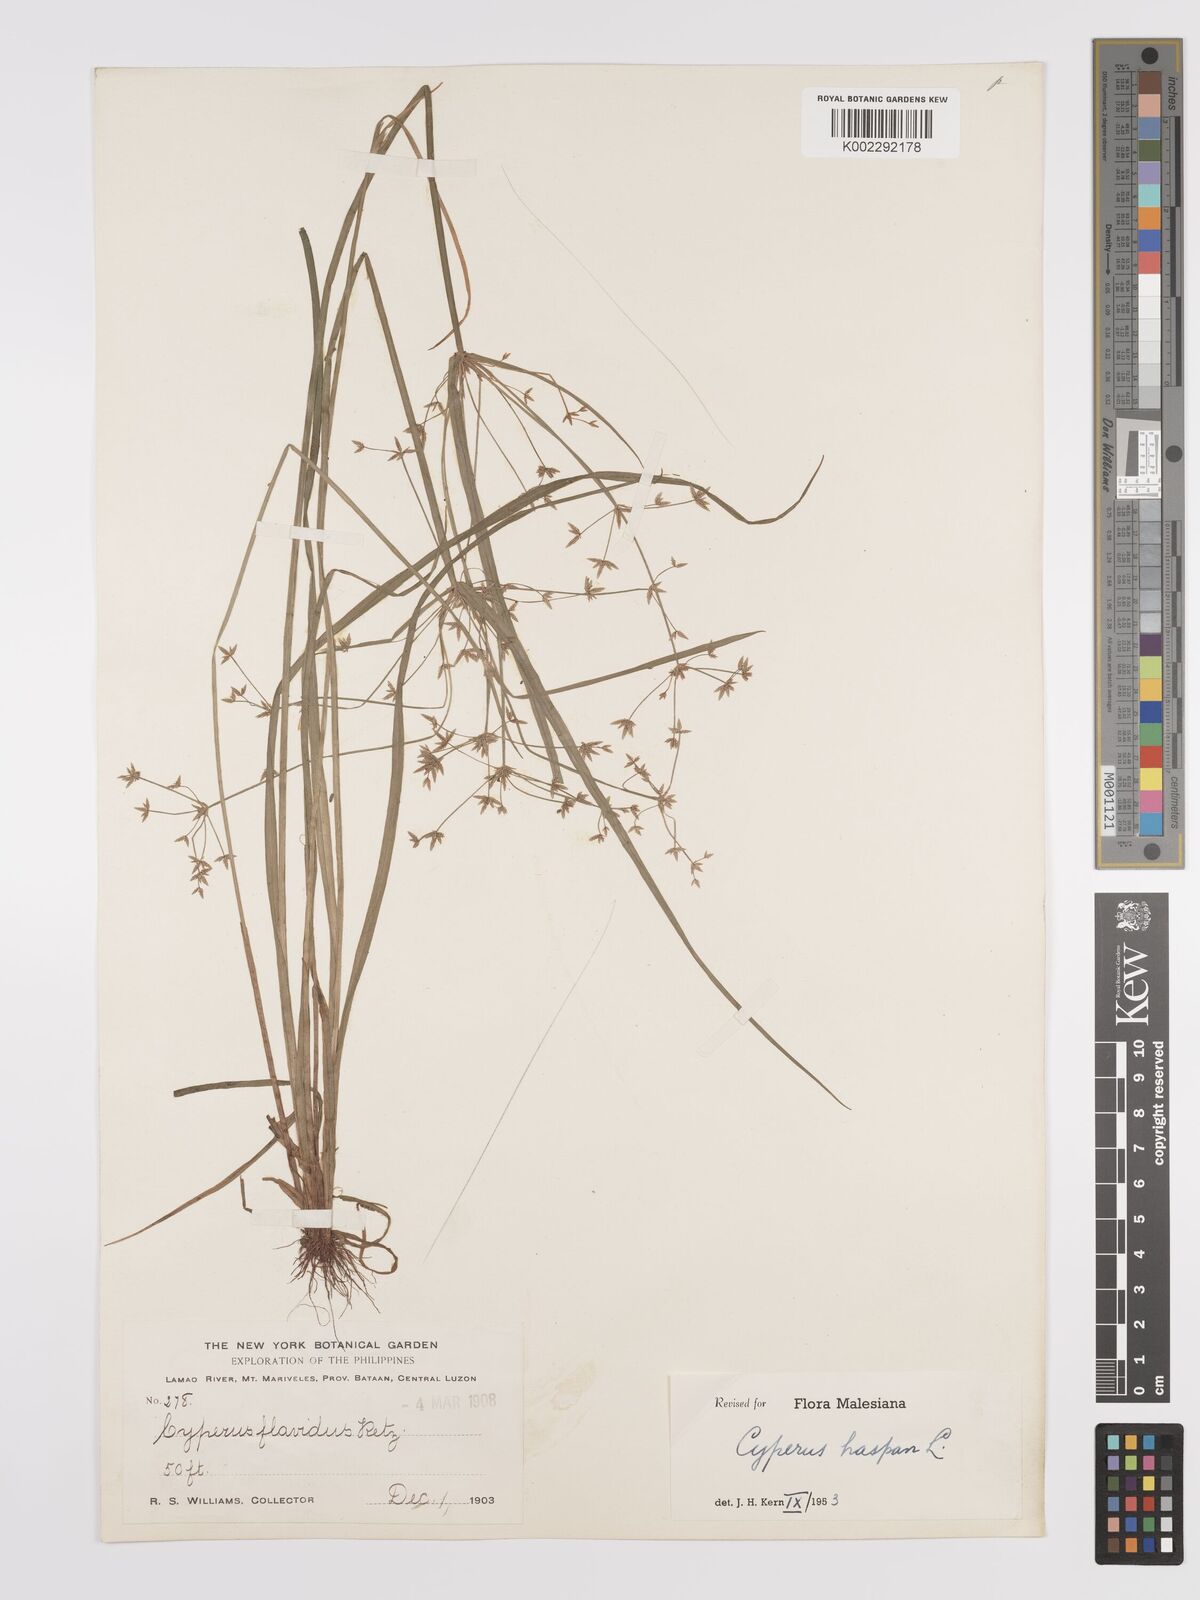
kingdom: Plantae
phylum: Tracheophyta
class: Liliopsida
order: Poales
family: Cyperaceae
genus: Cyperus
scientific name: Cyperus haspan
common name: Haspan flatsedge
